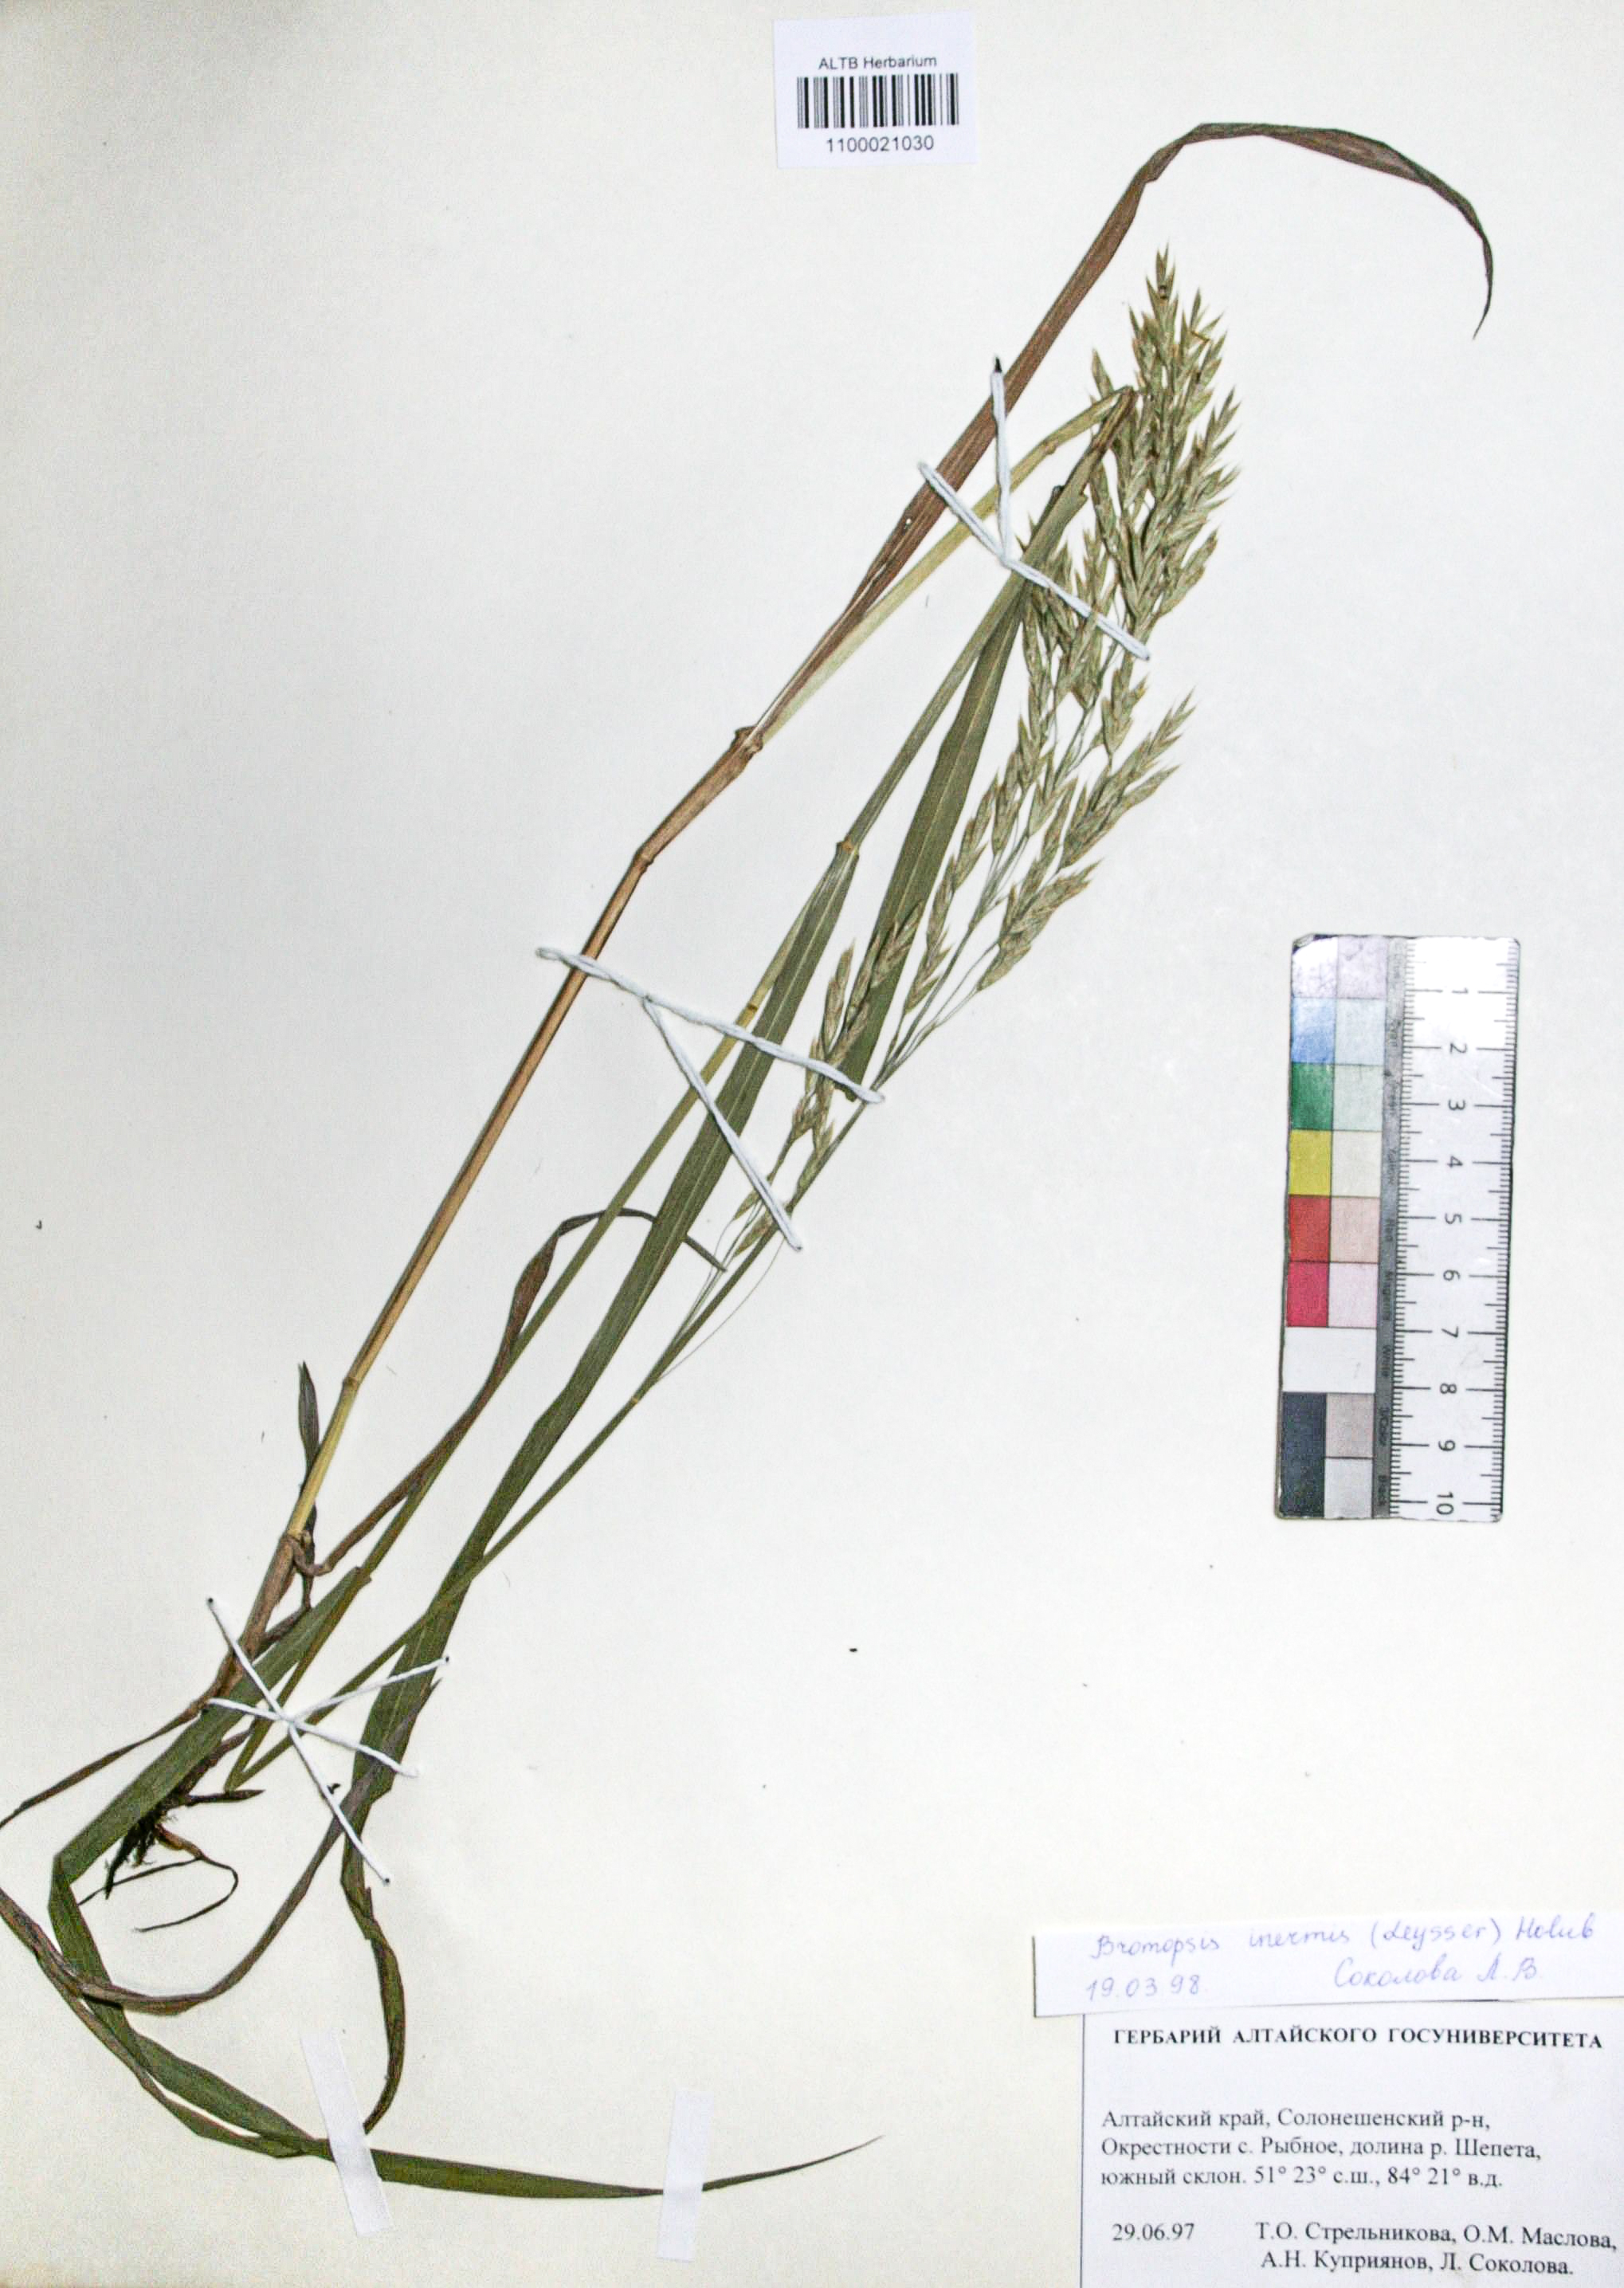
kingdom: Plantae
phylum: Tracheophyta
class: Liliopsida
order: Poales
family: Poaceae
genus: Bromus
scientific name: Bromus inermis
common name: Smooth brome
